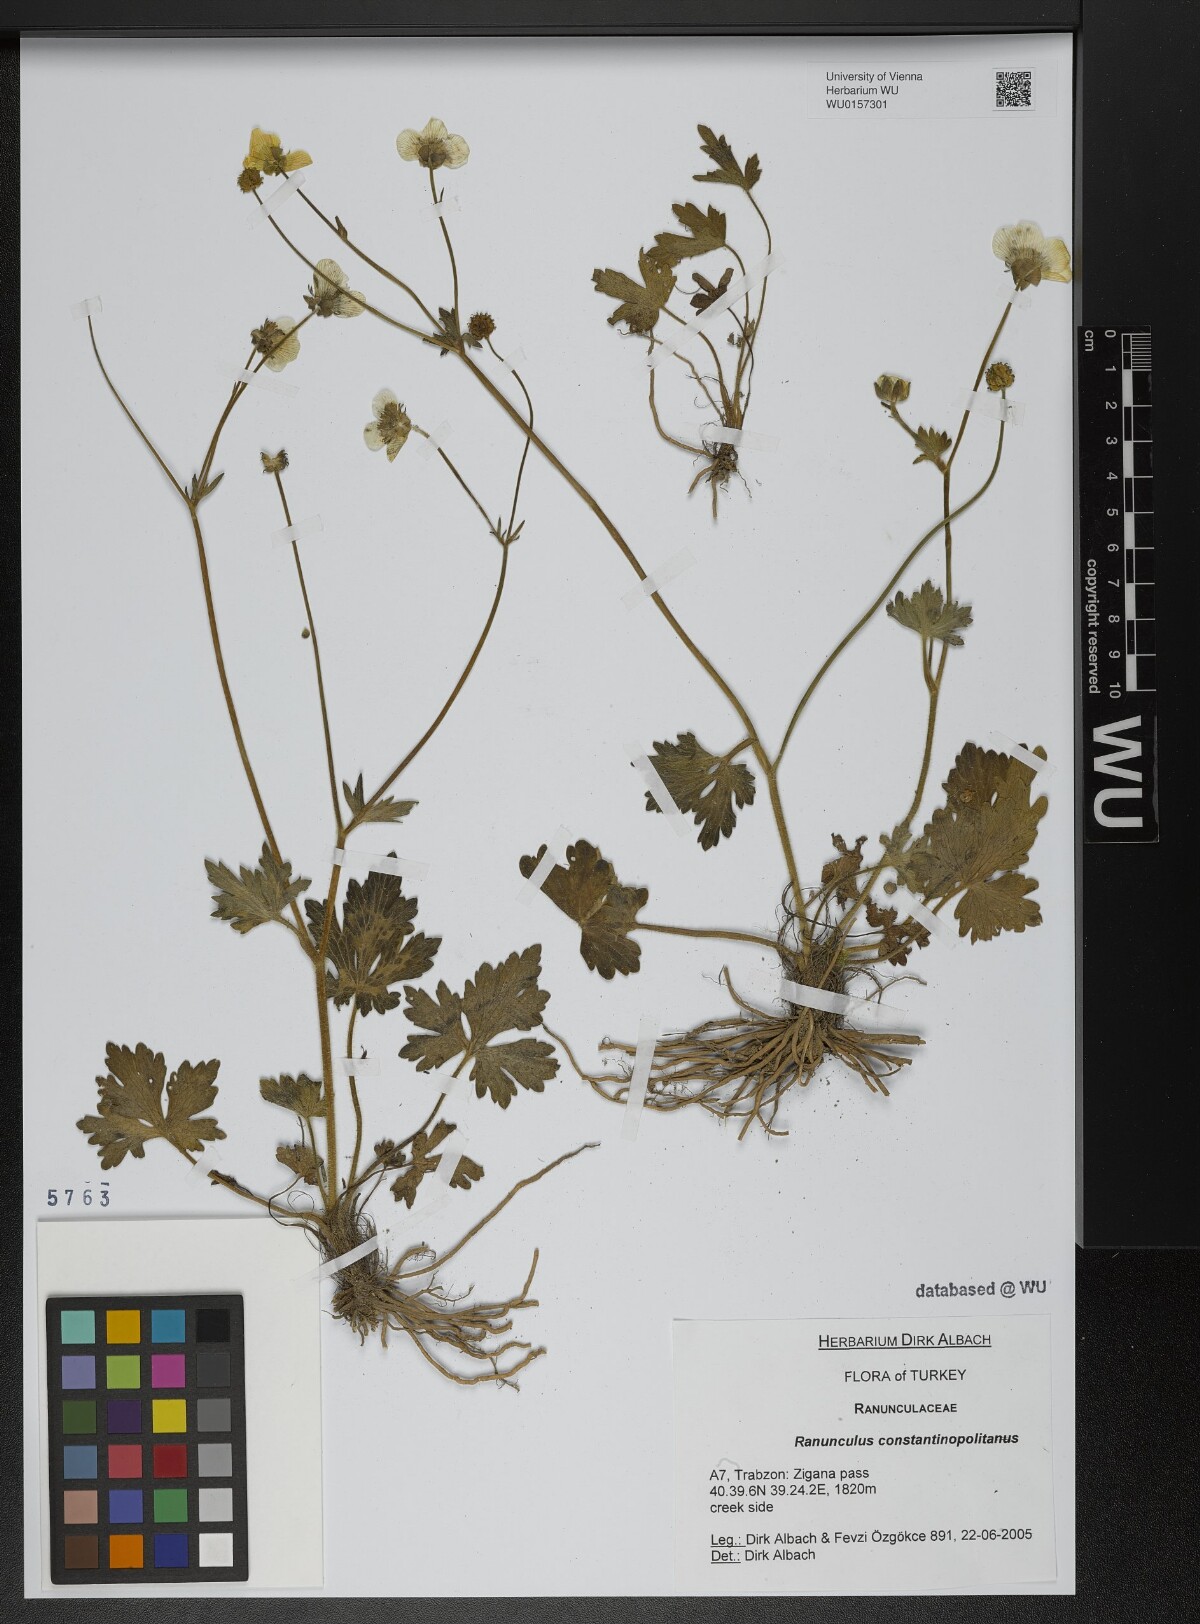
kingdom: Plantae
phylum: Tracheophyta
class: Magnoliopsida
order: Ranunculales
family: Ranunculaceae
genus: Ranunculus
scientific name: Ranunculus constantinopolitanus
